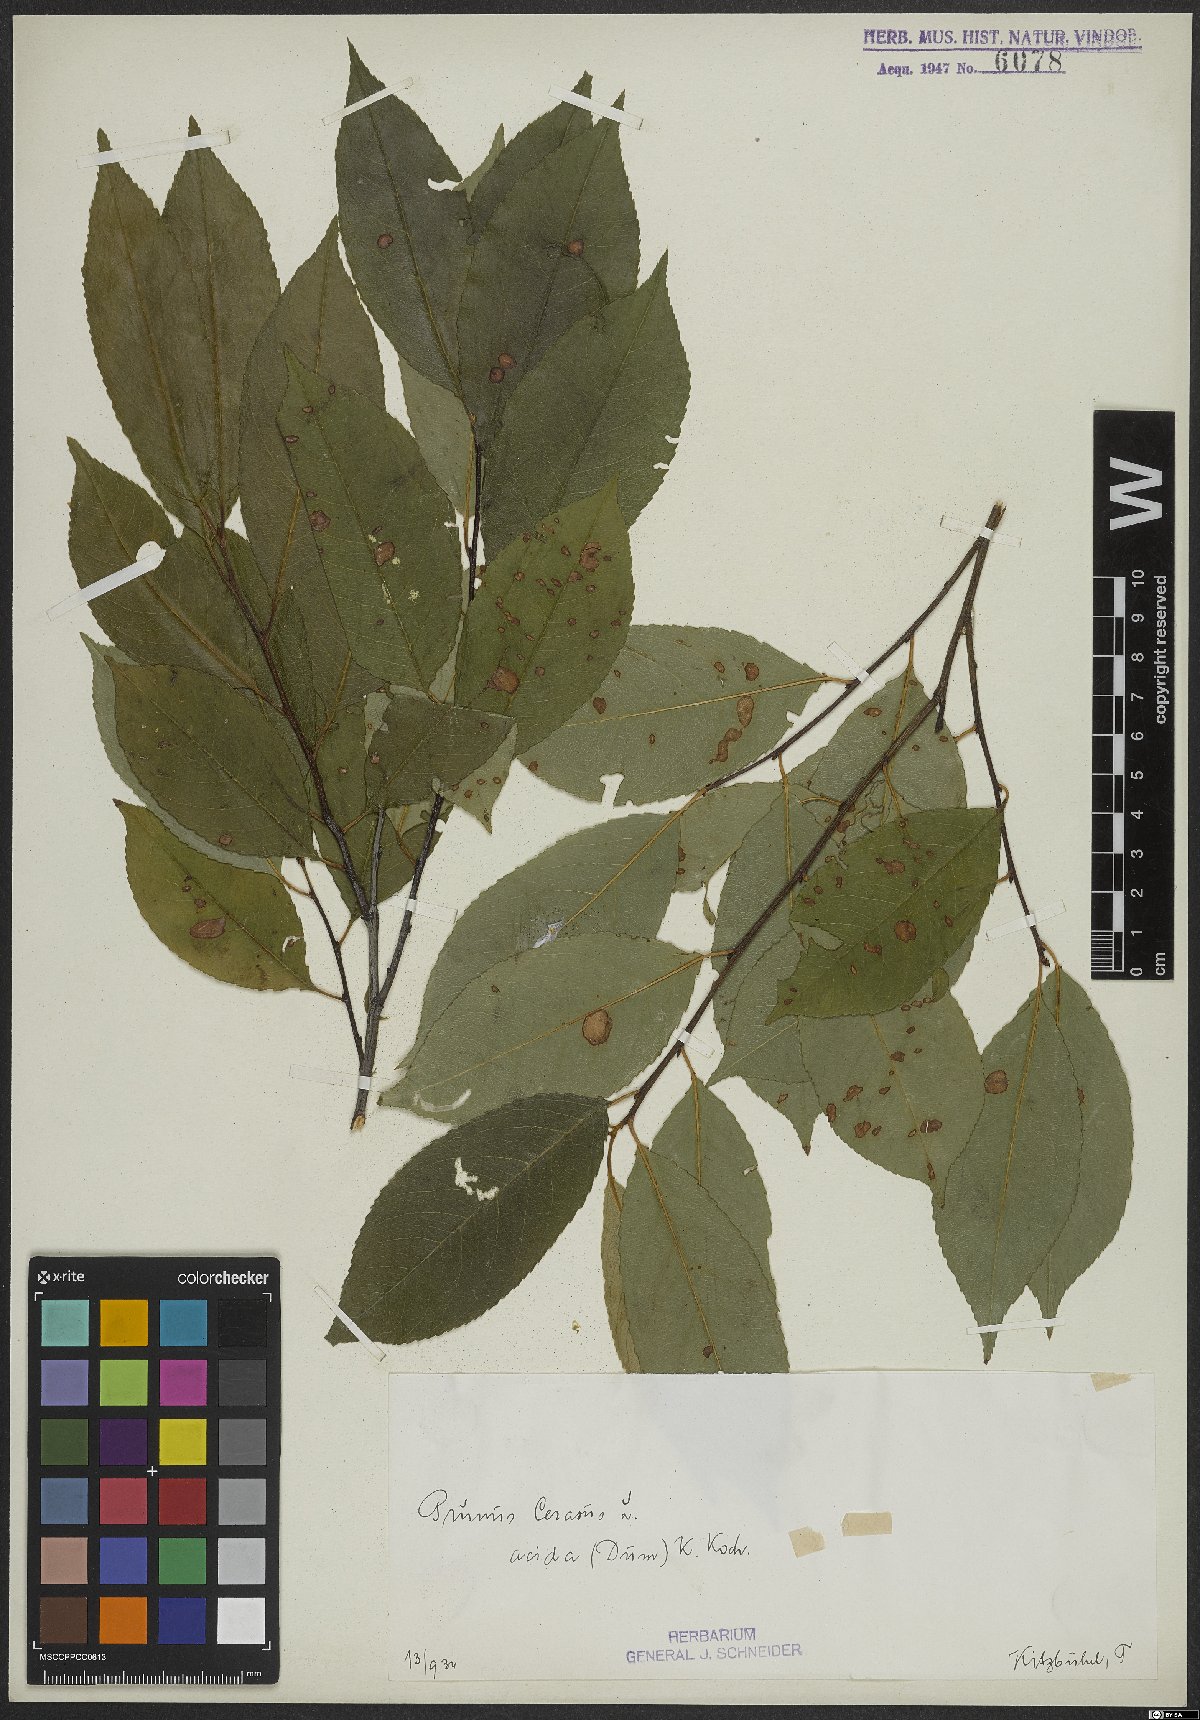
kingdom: Plantae
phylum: Tracheophyta
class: Magnoliopsida
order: Rosales
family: Rosaceae
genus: Prunus
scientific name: Prunus cerasus
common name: Morello cherry
